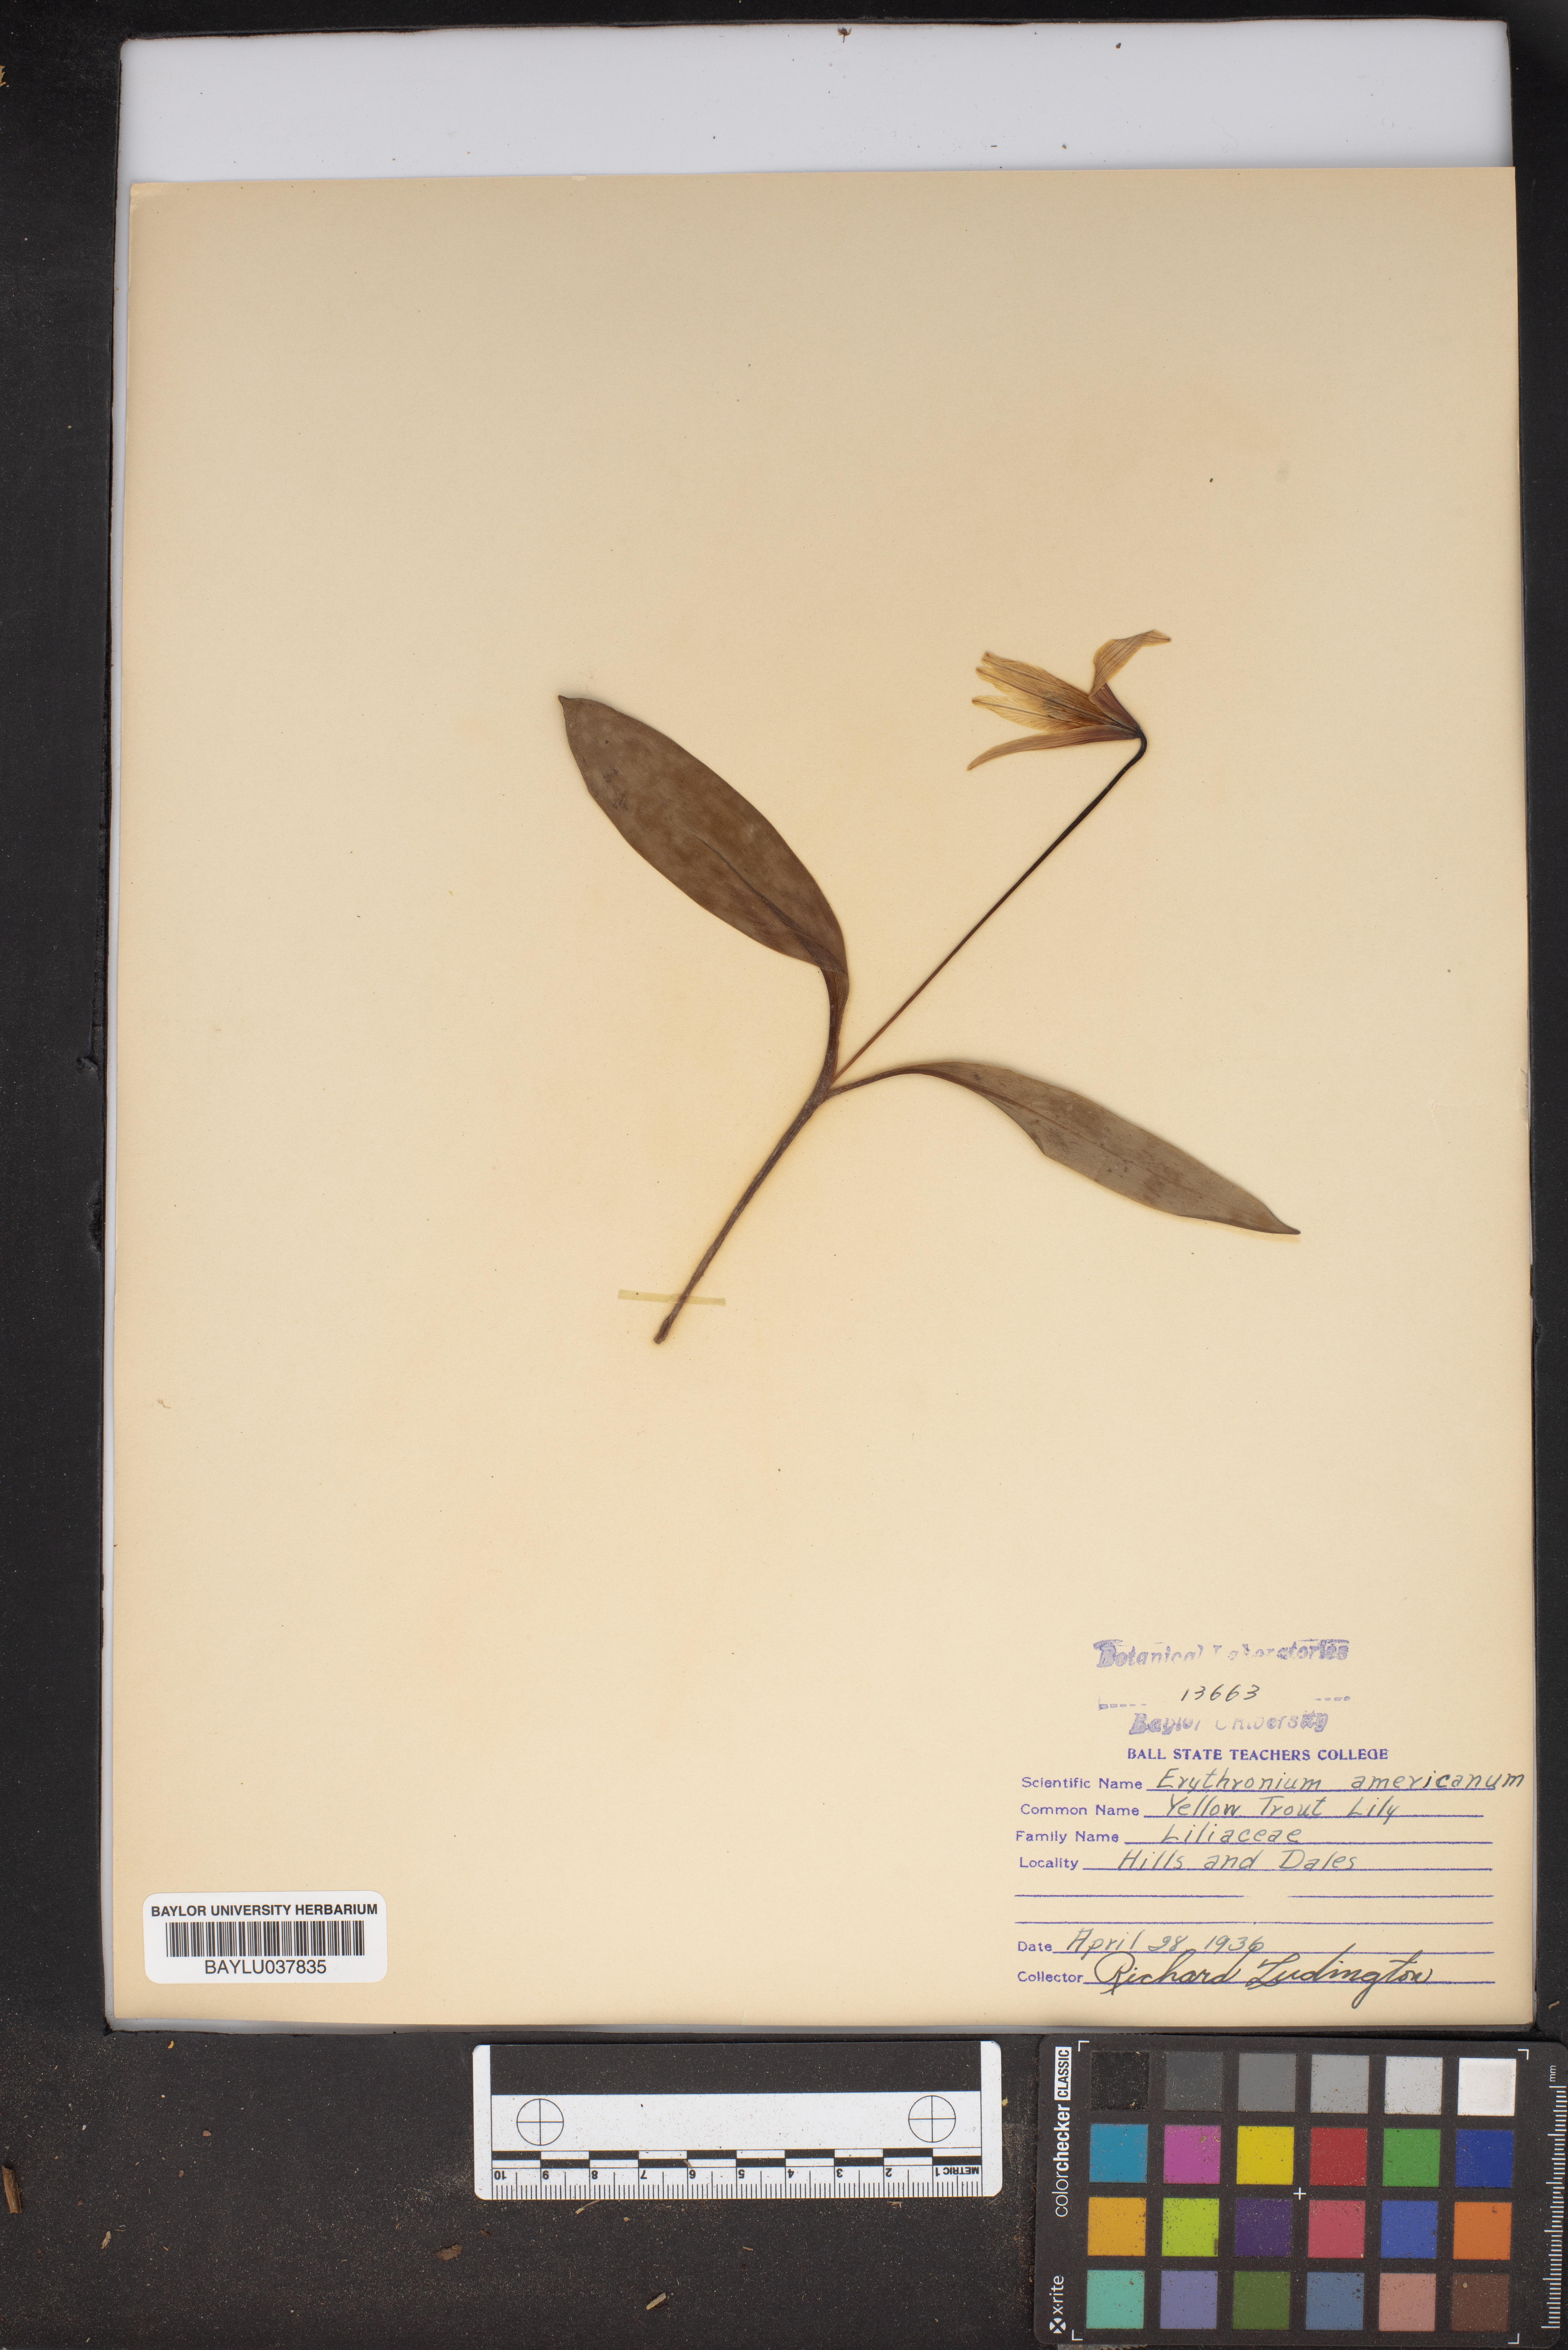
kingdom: Plantae
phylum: Tracheophyta
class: Liliopsida
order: Liliales
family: Liliaceae
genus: Erythronium
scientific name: Erythronium americanum
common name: Yellow adder's-tongue
